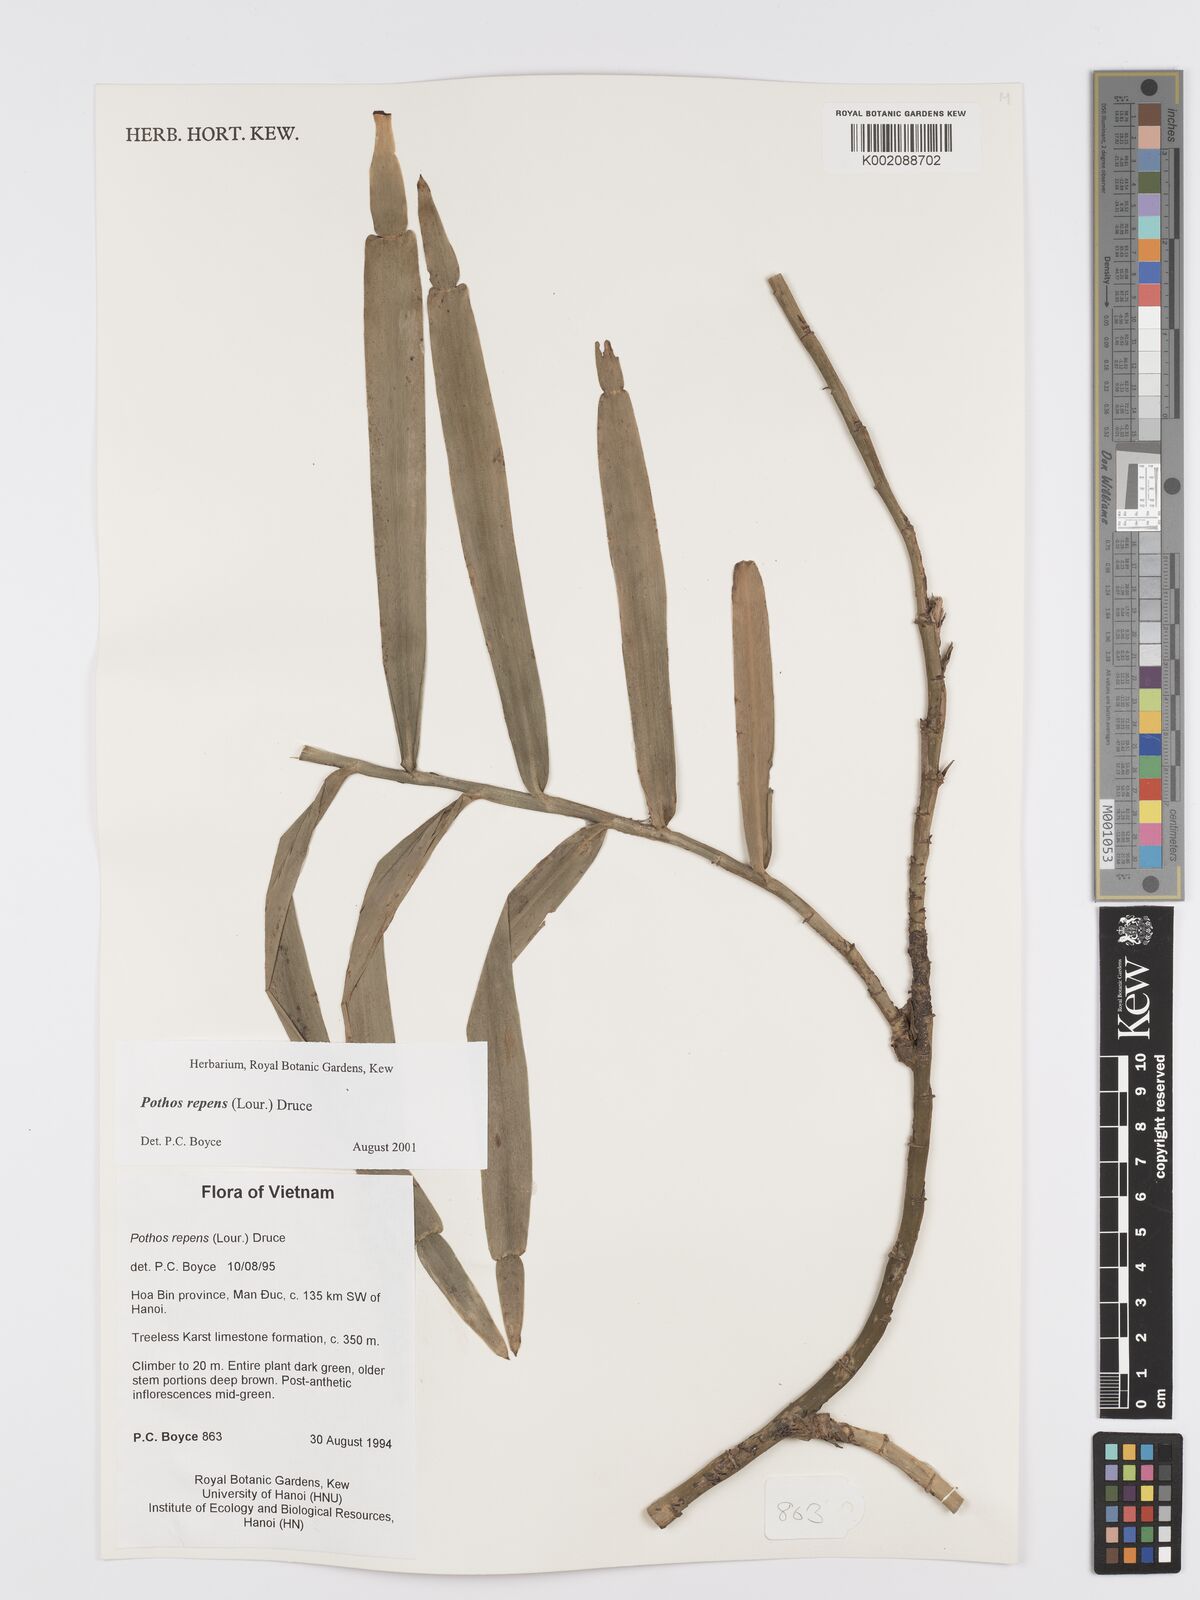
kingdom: Plantae
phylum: Tracheophyta
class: Liliopsida
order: Alismatales
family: Araceae
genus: Pothos
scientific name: Pothos repens
